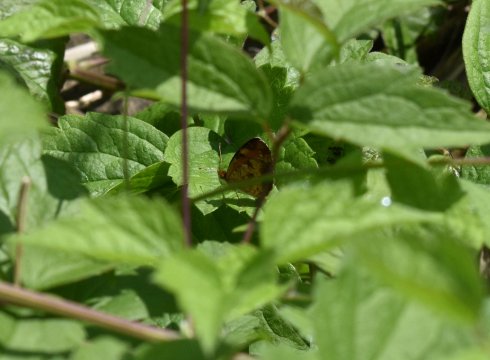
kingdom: Animalia
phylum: Arthropoda
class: Insecta
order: Lepidoptera
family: Nymphalidae
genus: Phyciodes
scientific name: Phyciodes tharos
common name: Northern Crescent
